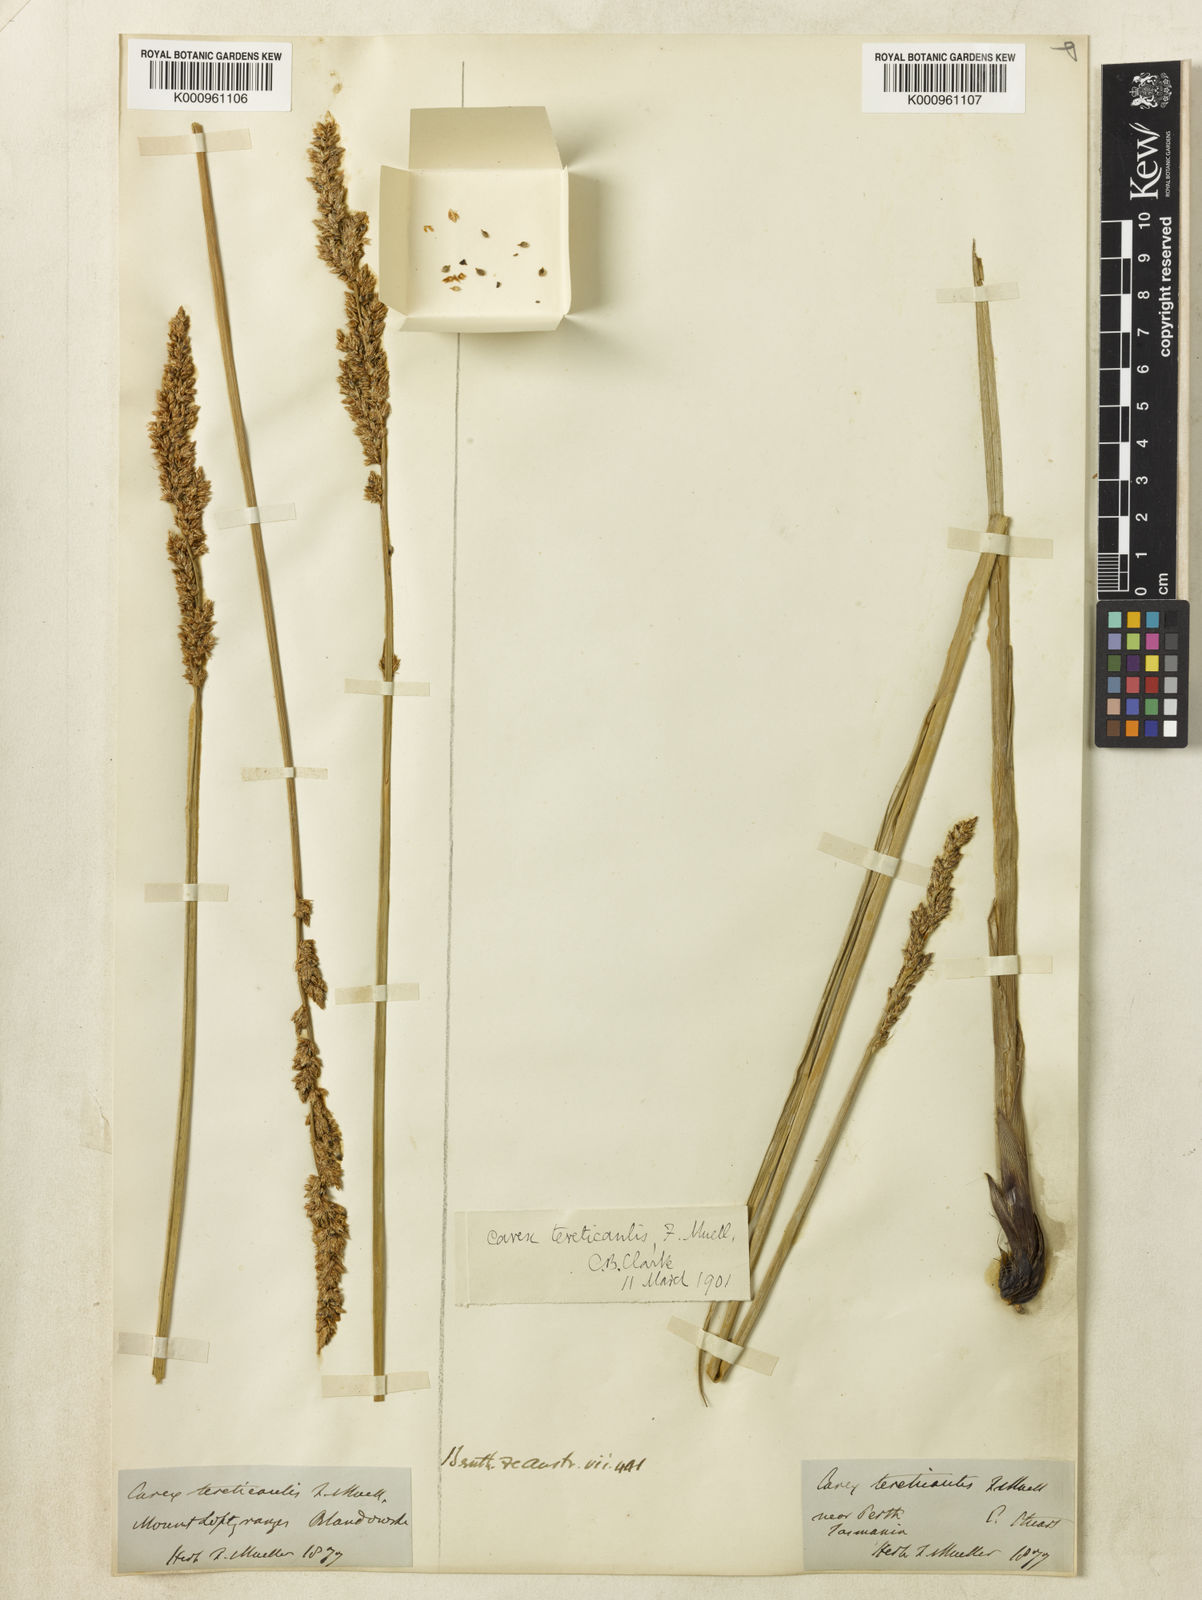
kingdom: Plantae
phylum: Tracheophyta
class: Liliopsida
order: Poales
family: Cyperaceae
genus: Carex
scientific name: Carex tereticaulis
